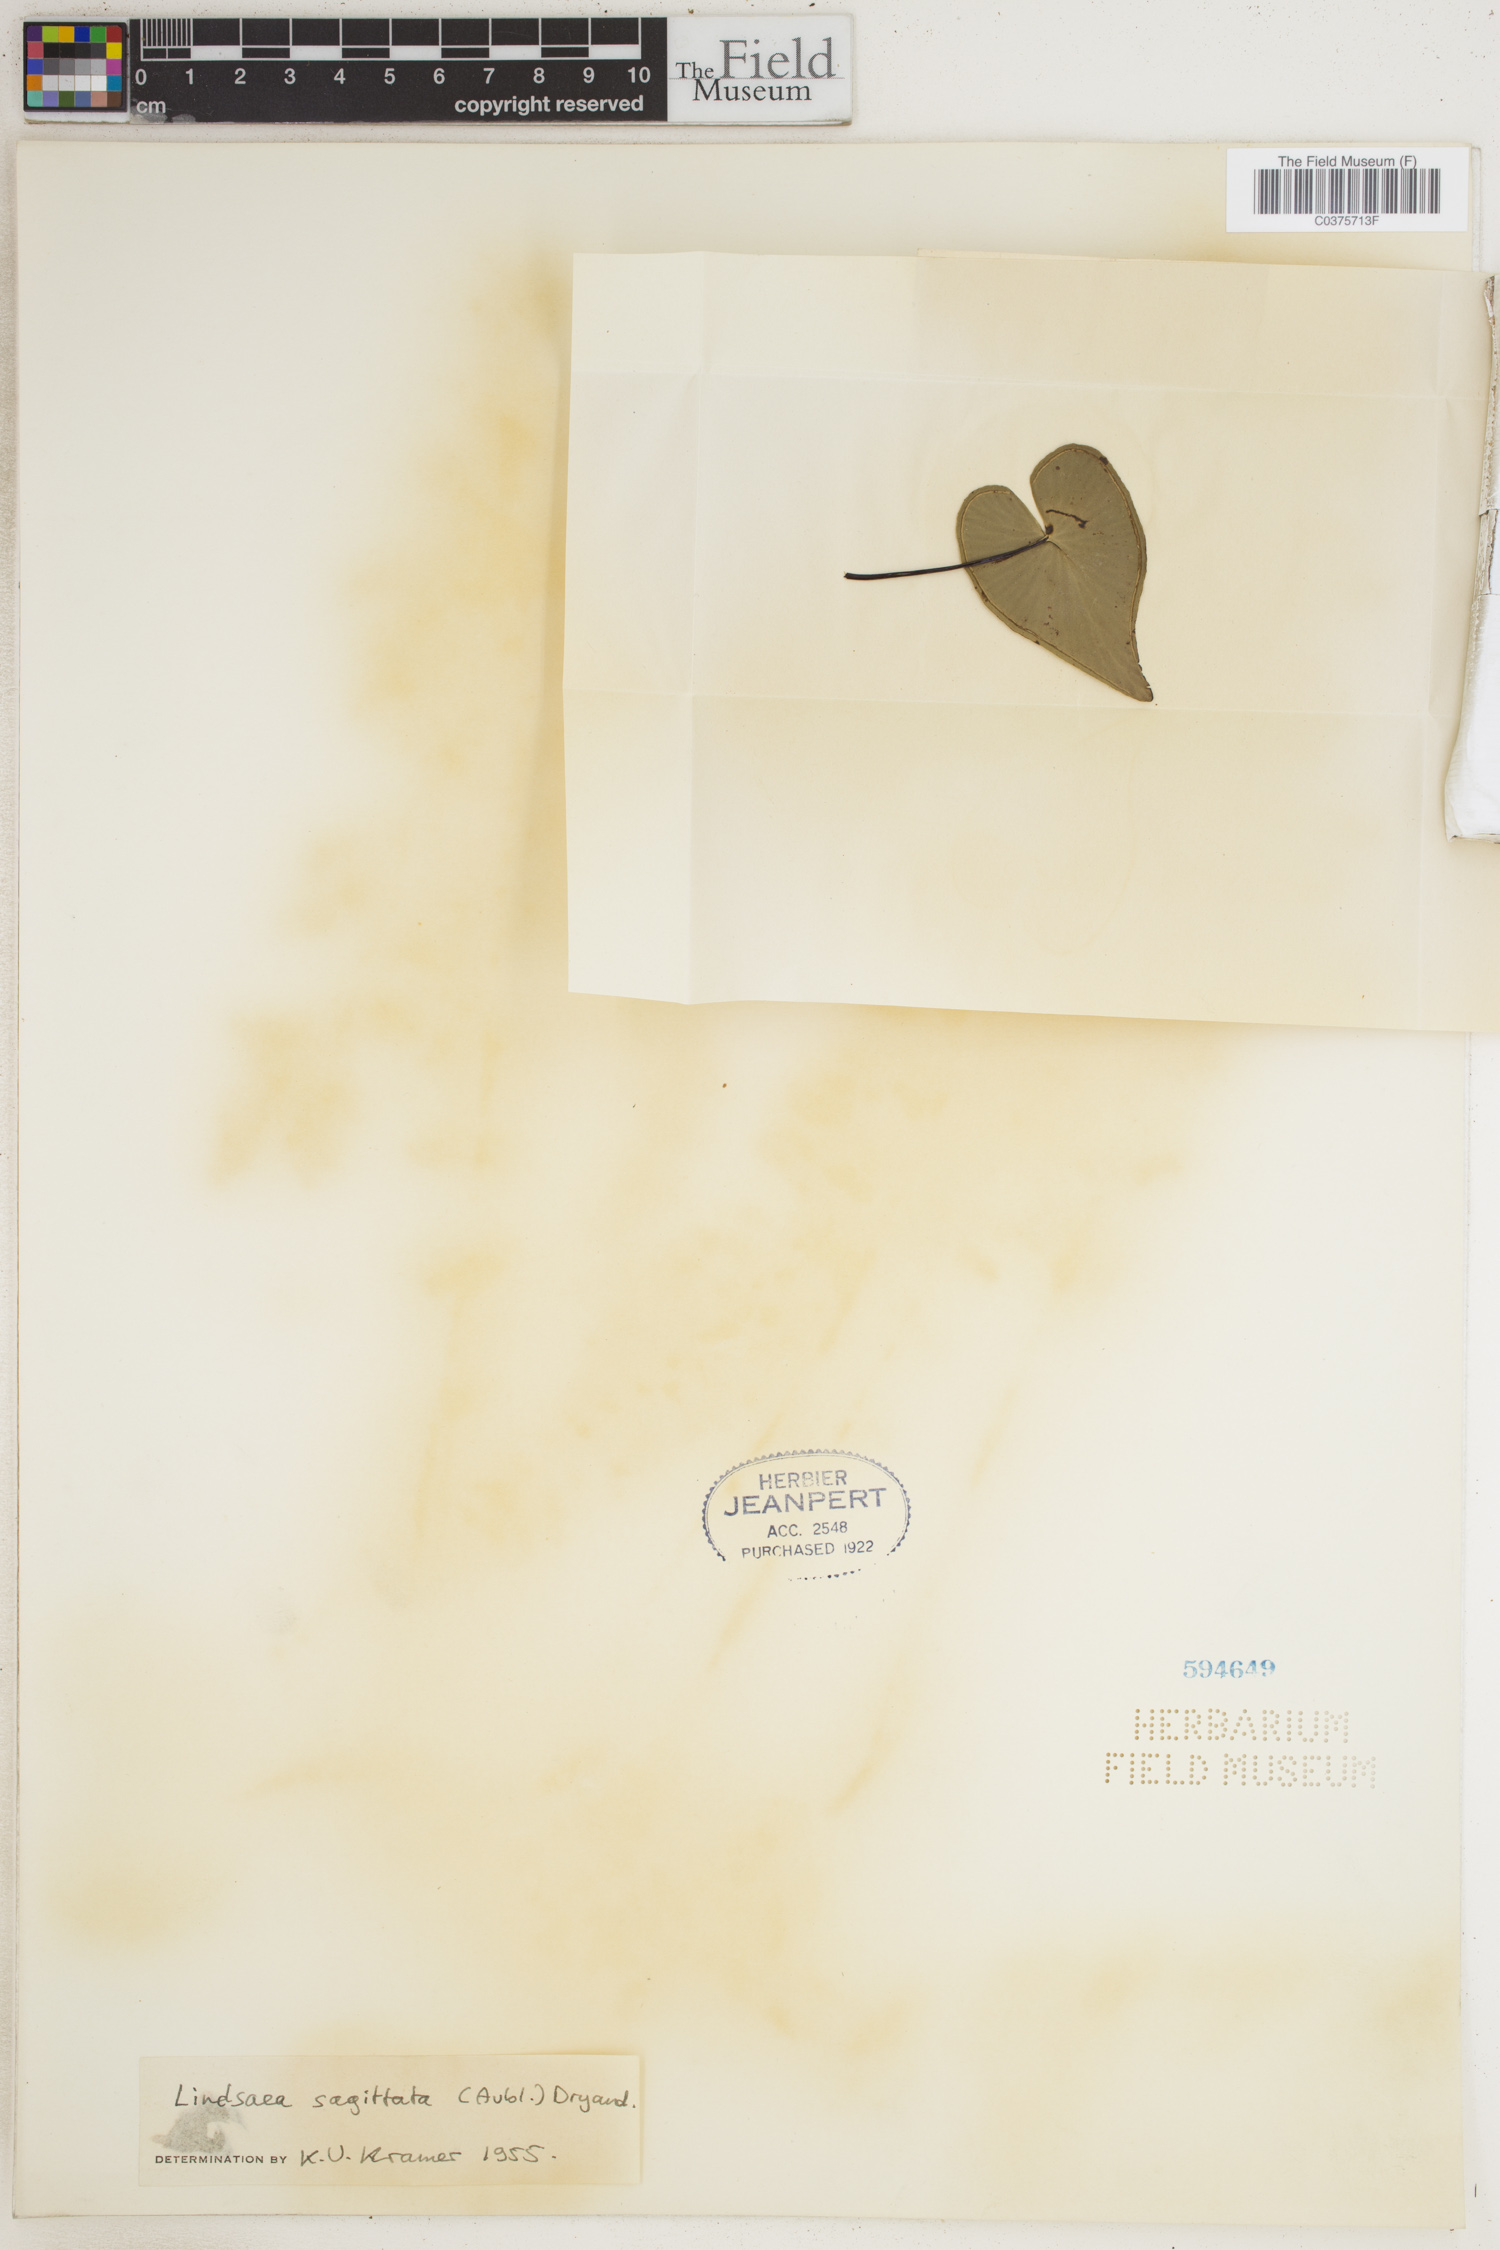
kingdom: Plantae
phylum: Tracheophyta
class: Polypodiopsida
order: Polypodiales
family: Lindsaeaceae
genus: Lindsaea
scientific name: Lindsaea sagittata
